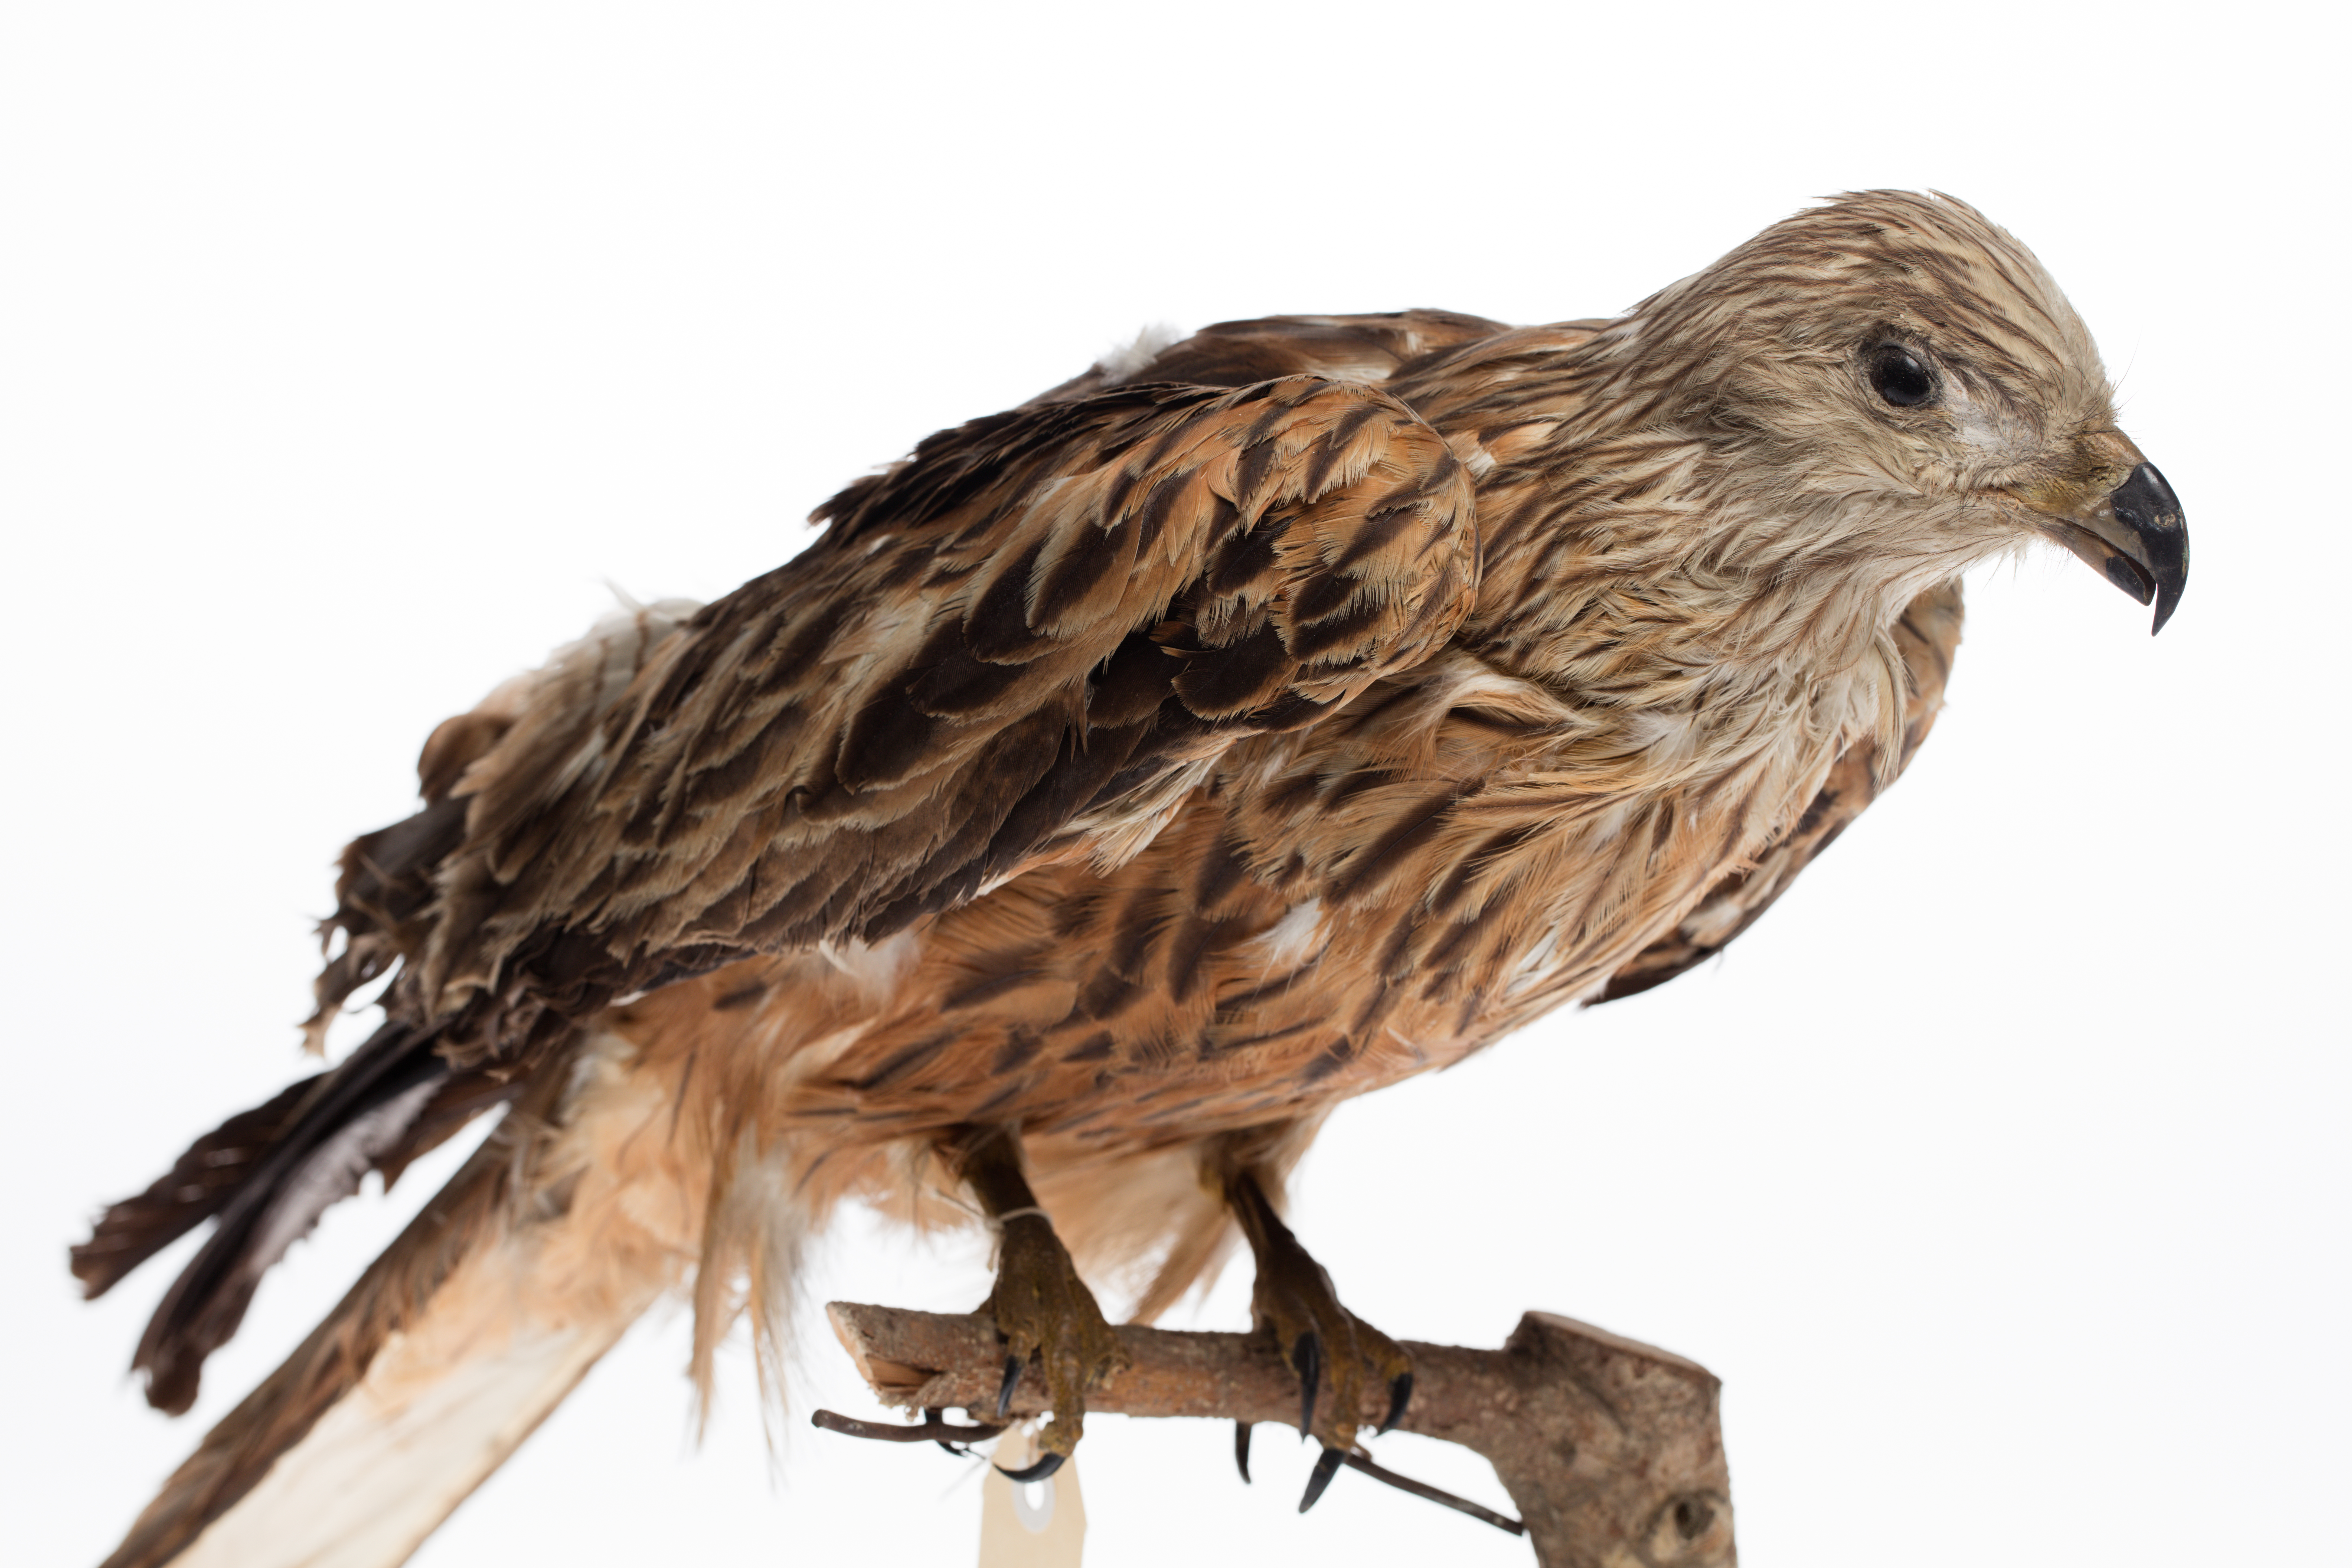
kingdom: Animalia
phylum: Chordata
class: Aves
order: Accipitriformes
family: Accipitridae
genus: Milvus
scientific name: Milvus milvus
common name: Red kite
